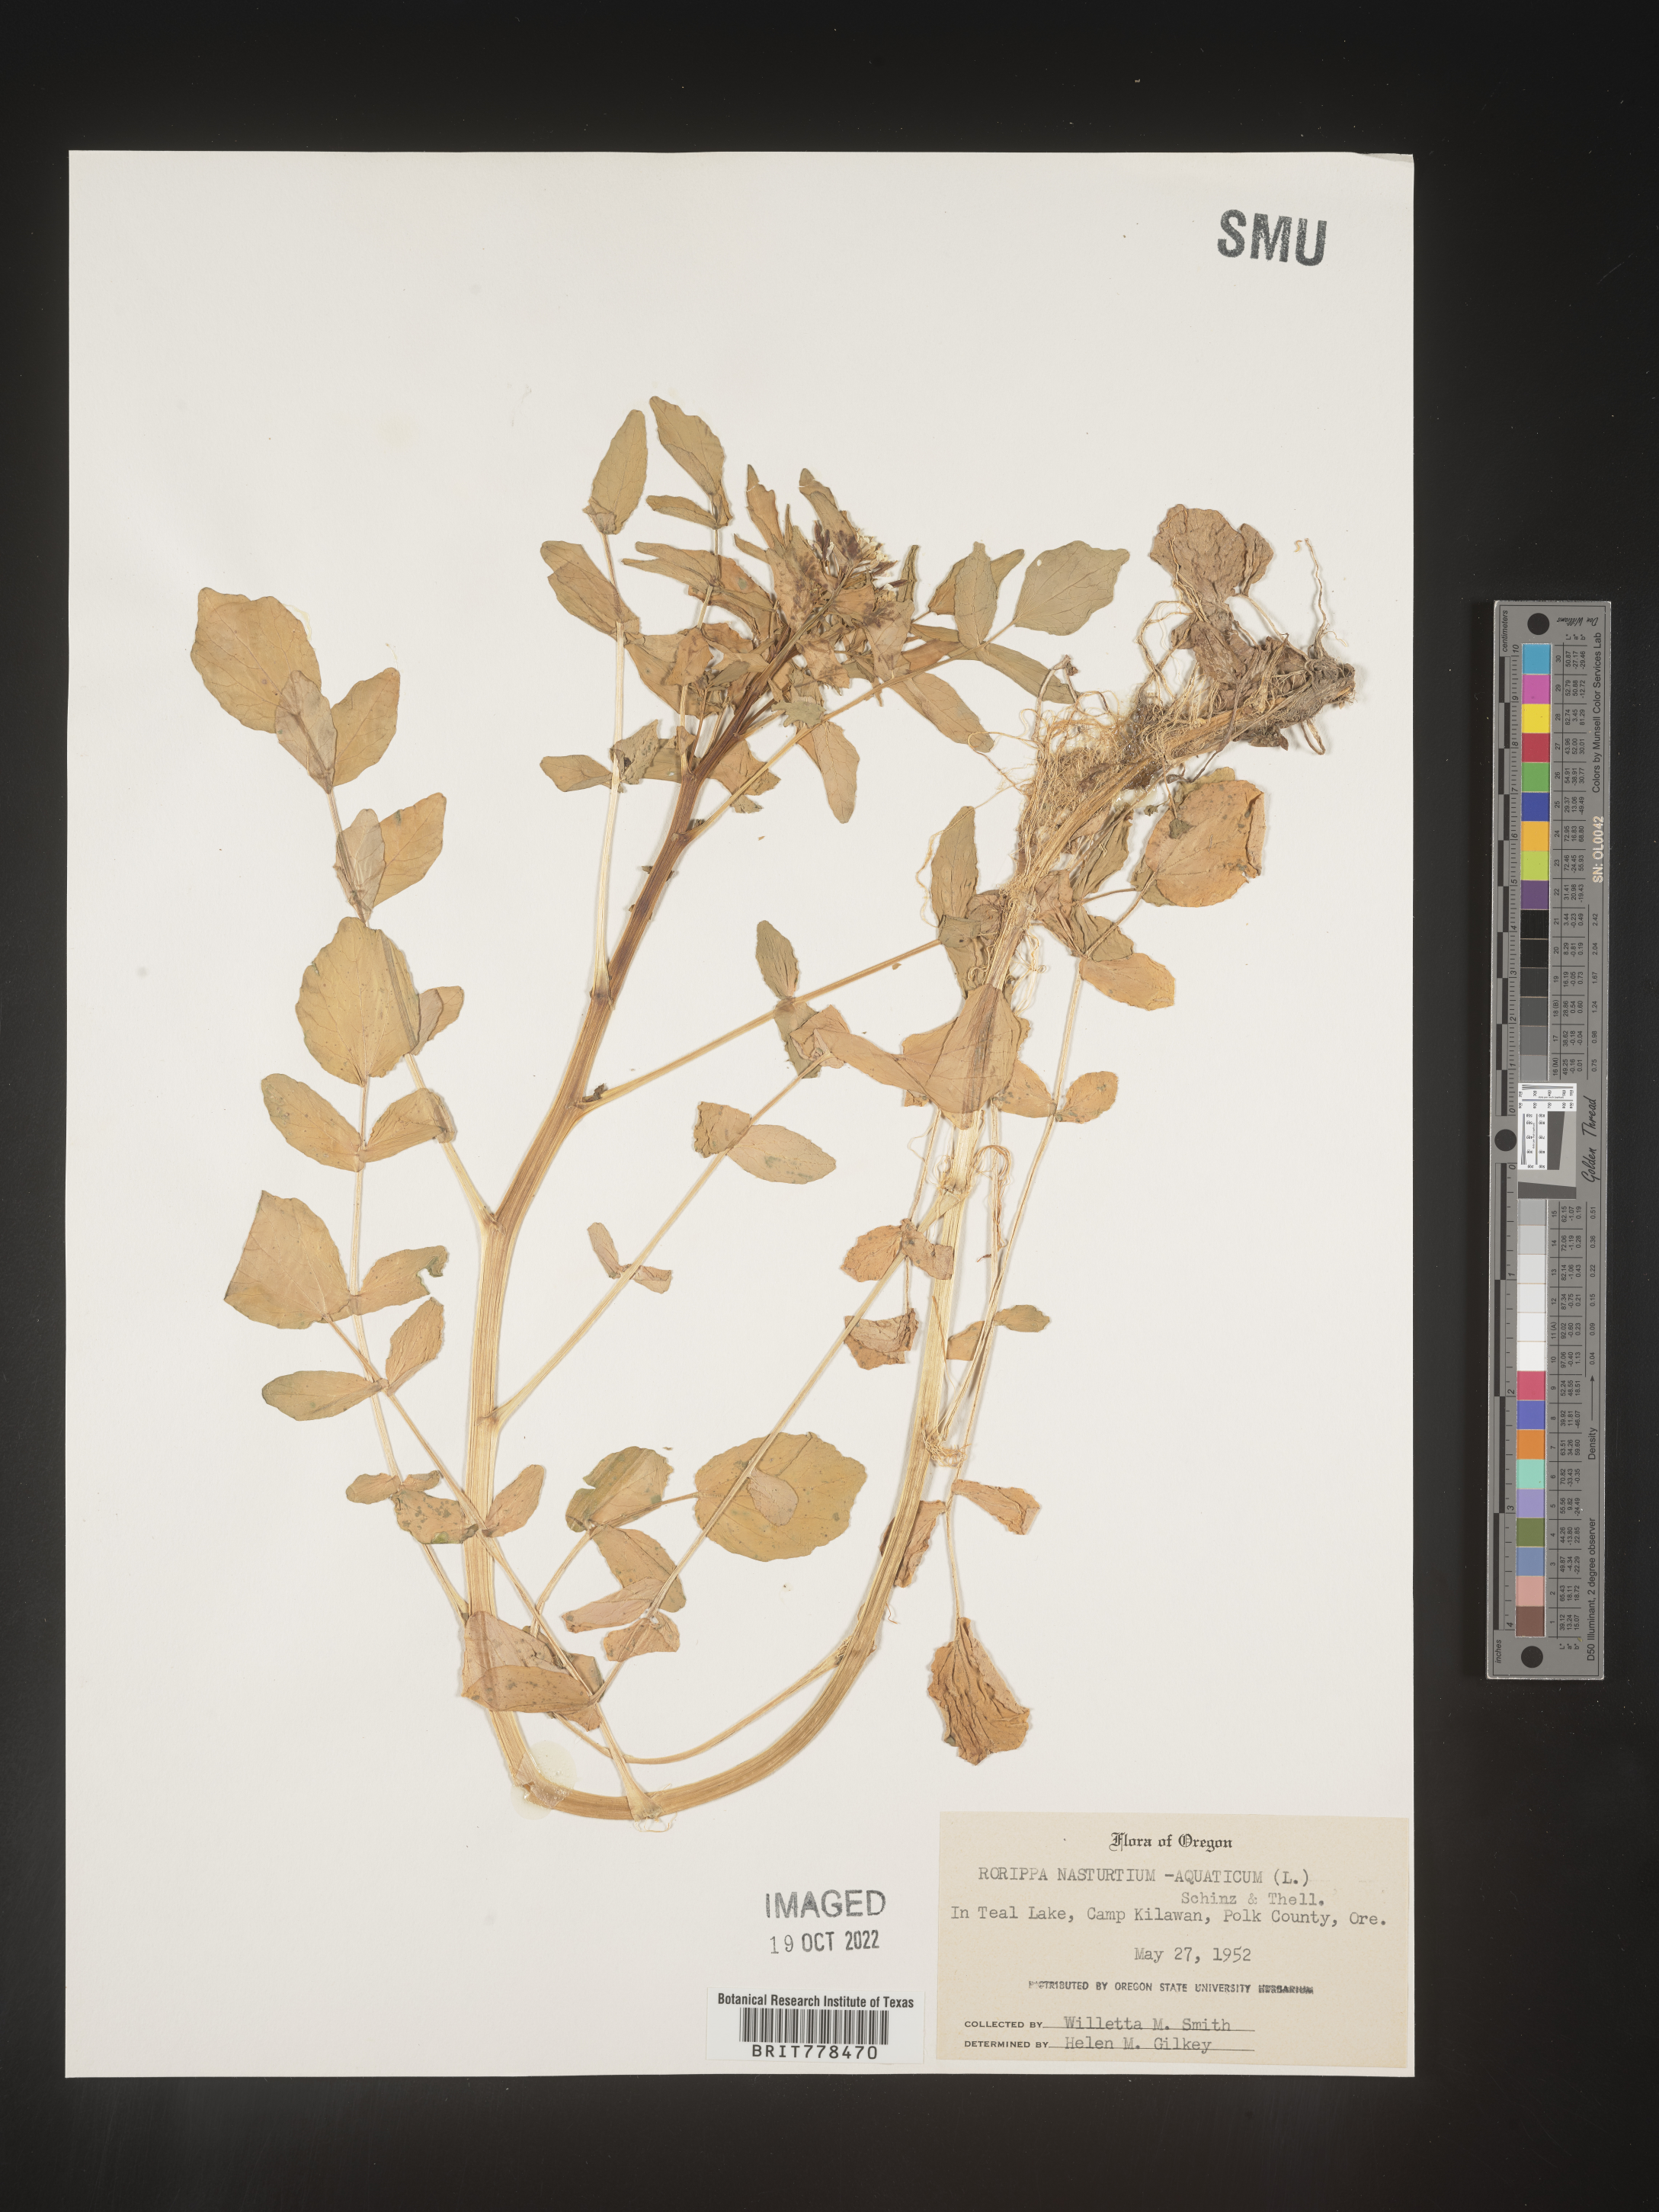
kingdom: Plantae
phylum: Tracheophyta
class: Magnoliopsida
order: Brassicales
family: Brassicaceae
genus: Nasturtium
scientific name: Nasturtium officinale
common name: Watercress
